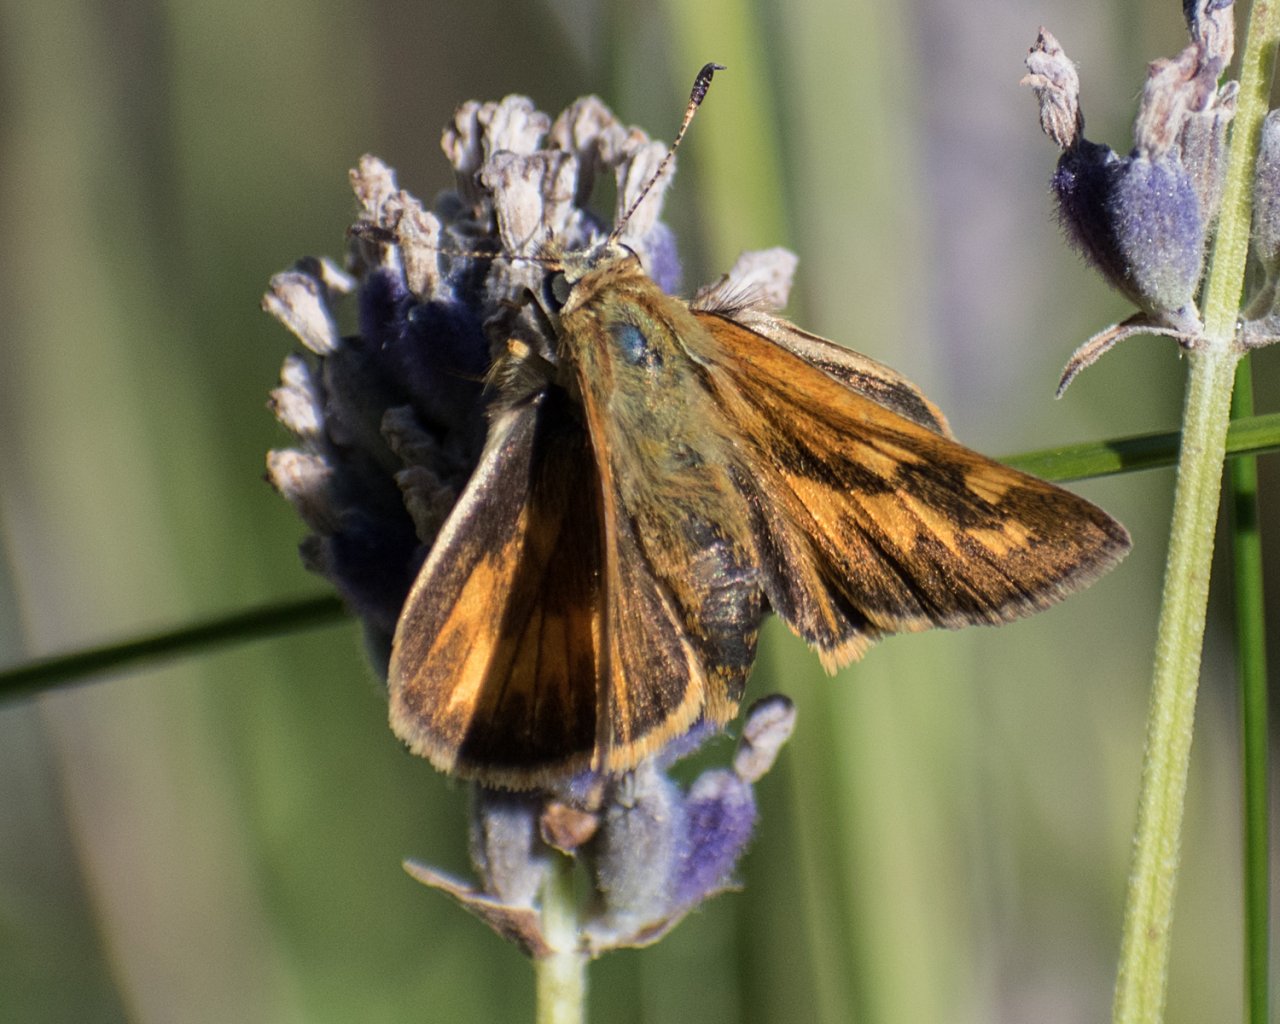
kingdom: Animalia
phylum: Arthropoda
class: Insecta
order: Lepidoptera
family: Hesperiidae
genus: Ochlodes
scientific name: Ochlodes sylvanoides
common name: Woodland Skipper
